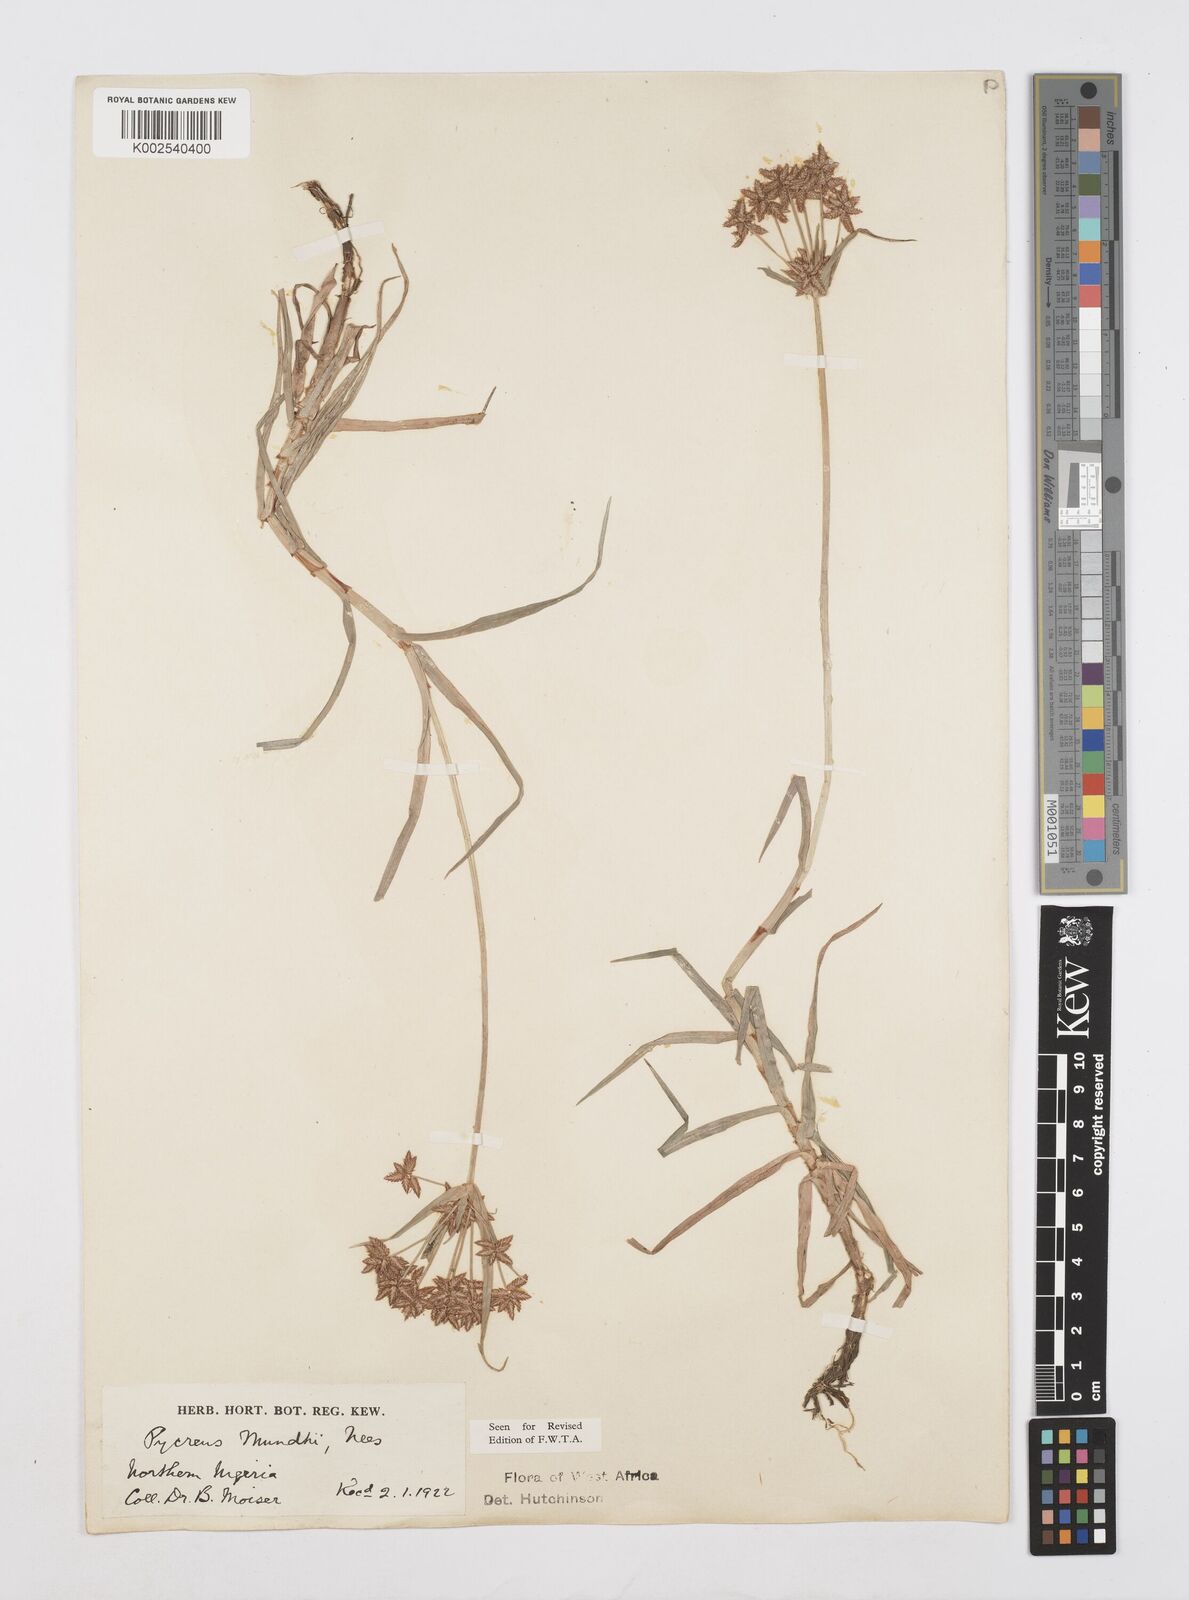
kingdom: Plantae
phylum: Tracheophyta
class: Liliopsida
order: Poales
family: Cyperaceae
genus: Cyperus
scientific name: Cyperus mundii
